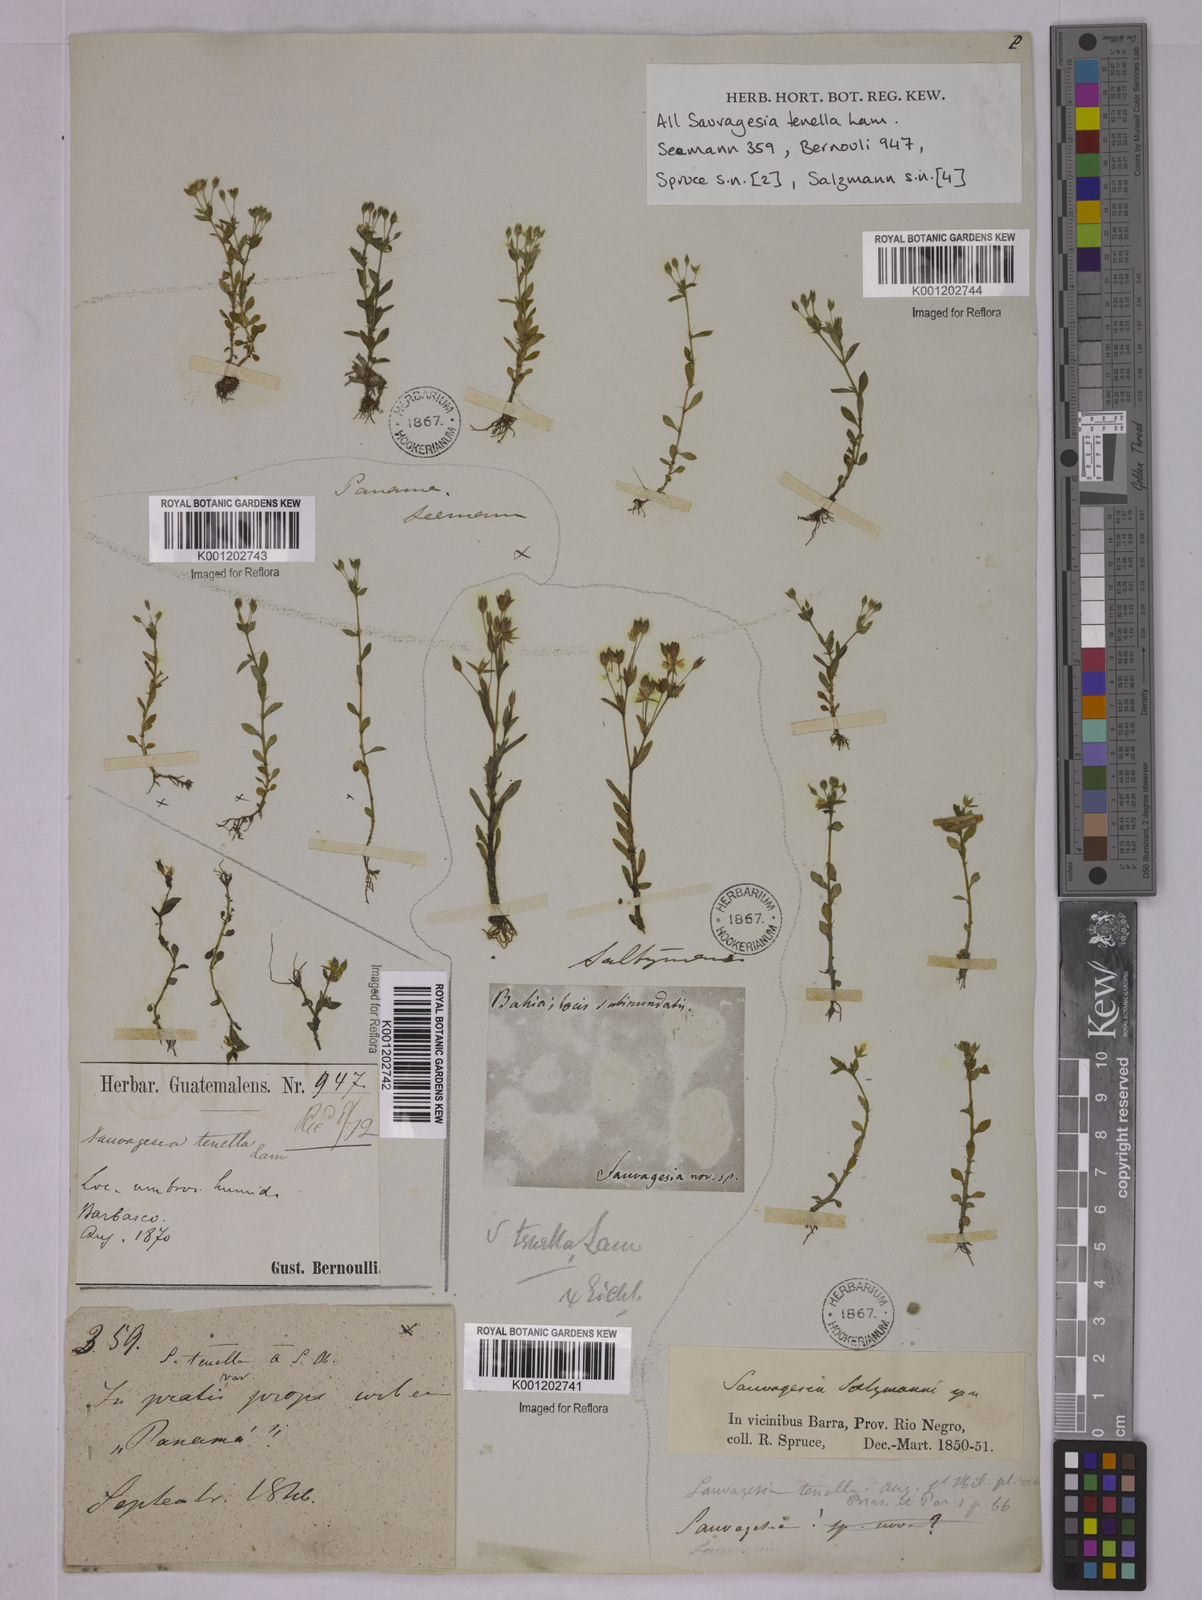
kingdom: Plantae
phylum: Tracheophyta
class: Magnoliopsida
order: Malpighiales
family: Ochnaceae
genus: Sauvagesia
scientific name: Sauvagesia tenella
